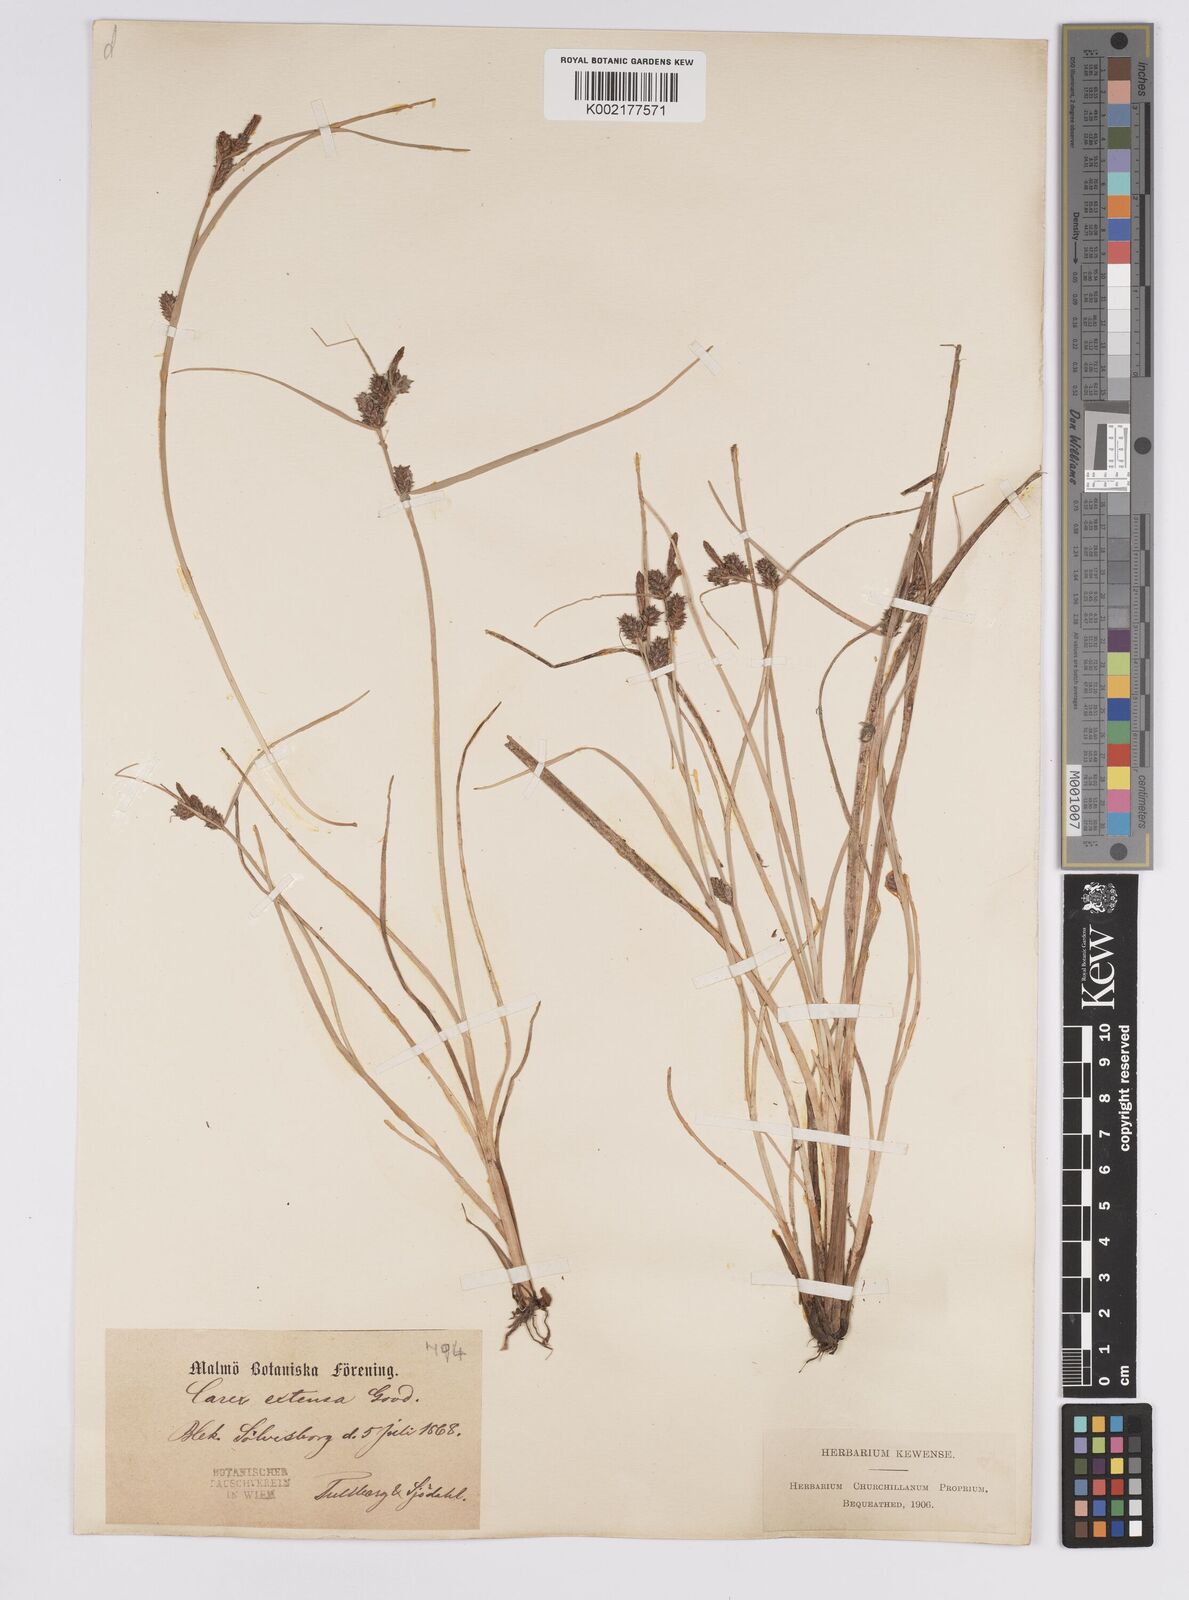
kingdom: Plantae
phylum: Tracheophyta
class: Liliopsida
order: Poales
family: Cyperaceae
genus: Carex
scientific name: Carex extensa
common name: Long-bracted sedge
